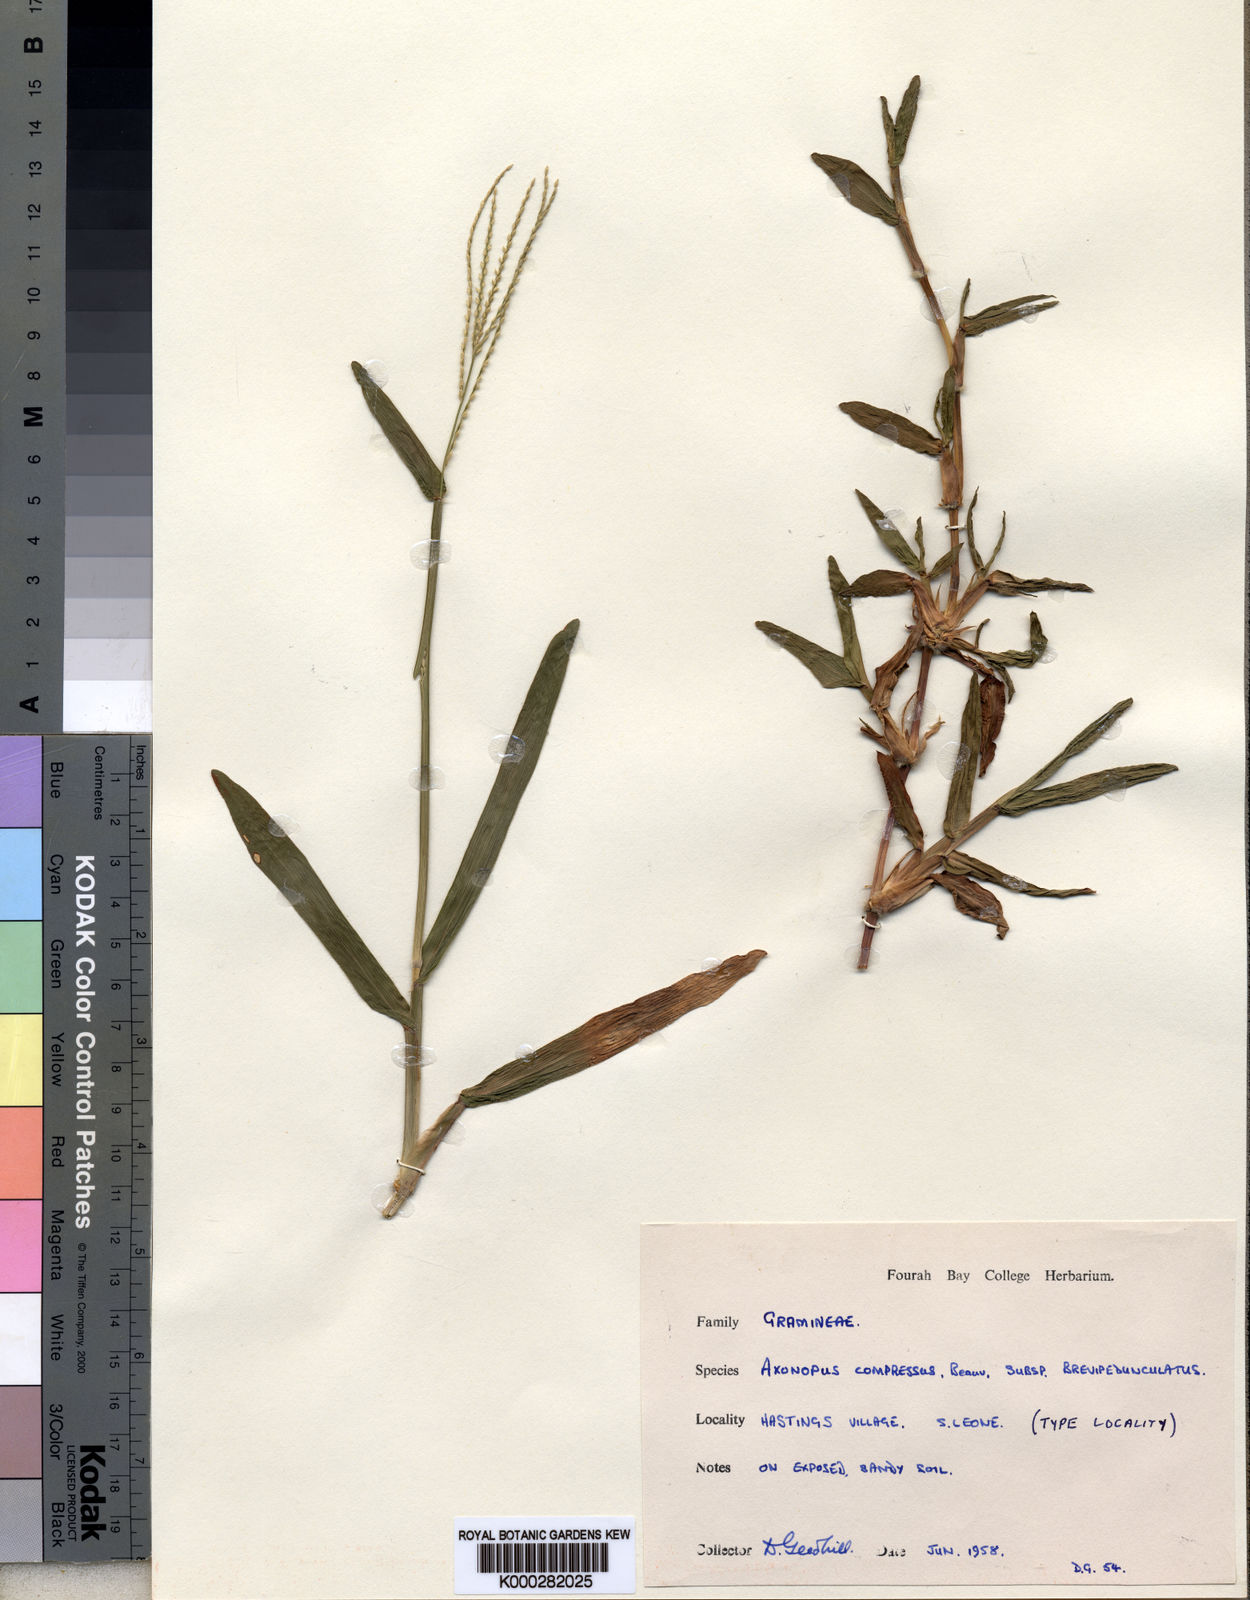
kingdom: Plantae
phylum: Tracheophyta
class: Liliopsida
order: Poales
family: Poaceae
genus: Axonopus
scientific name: Axonopus compressus
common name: American carpet grass
